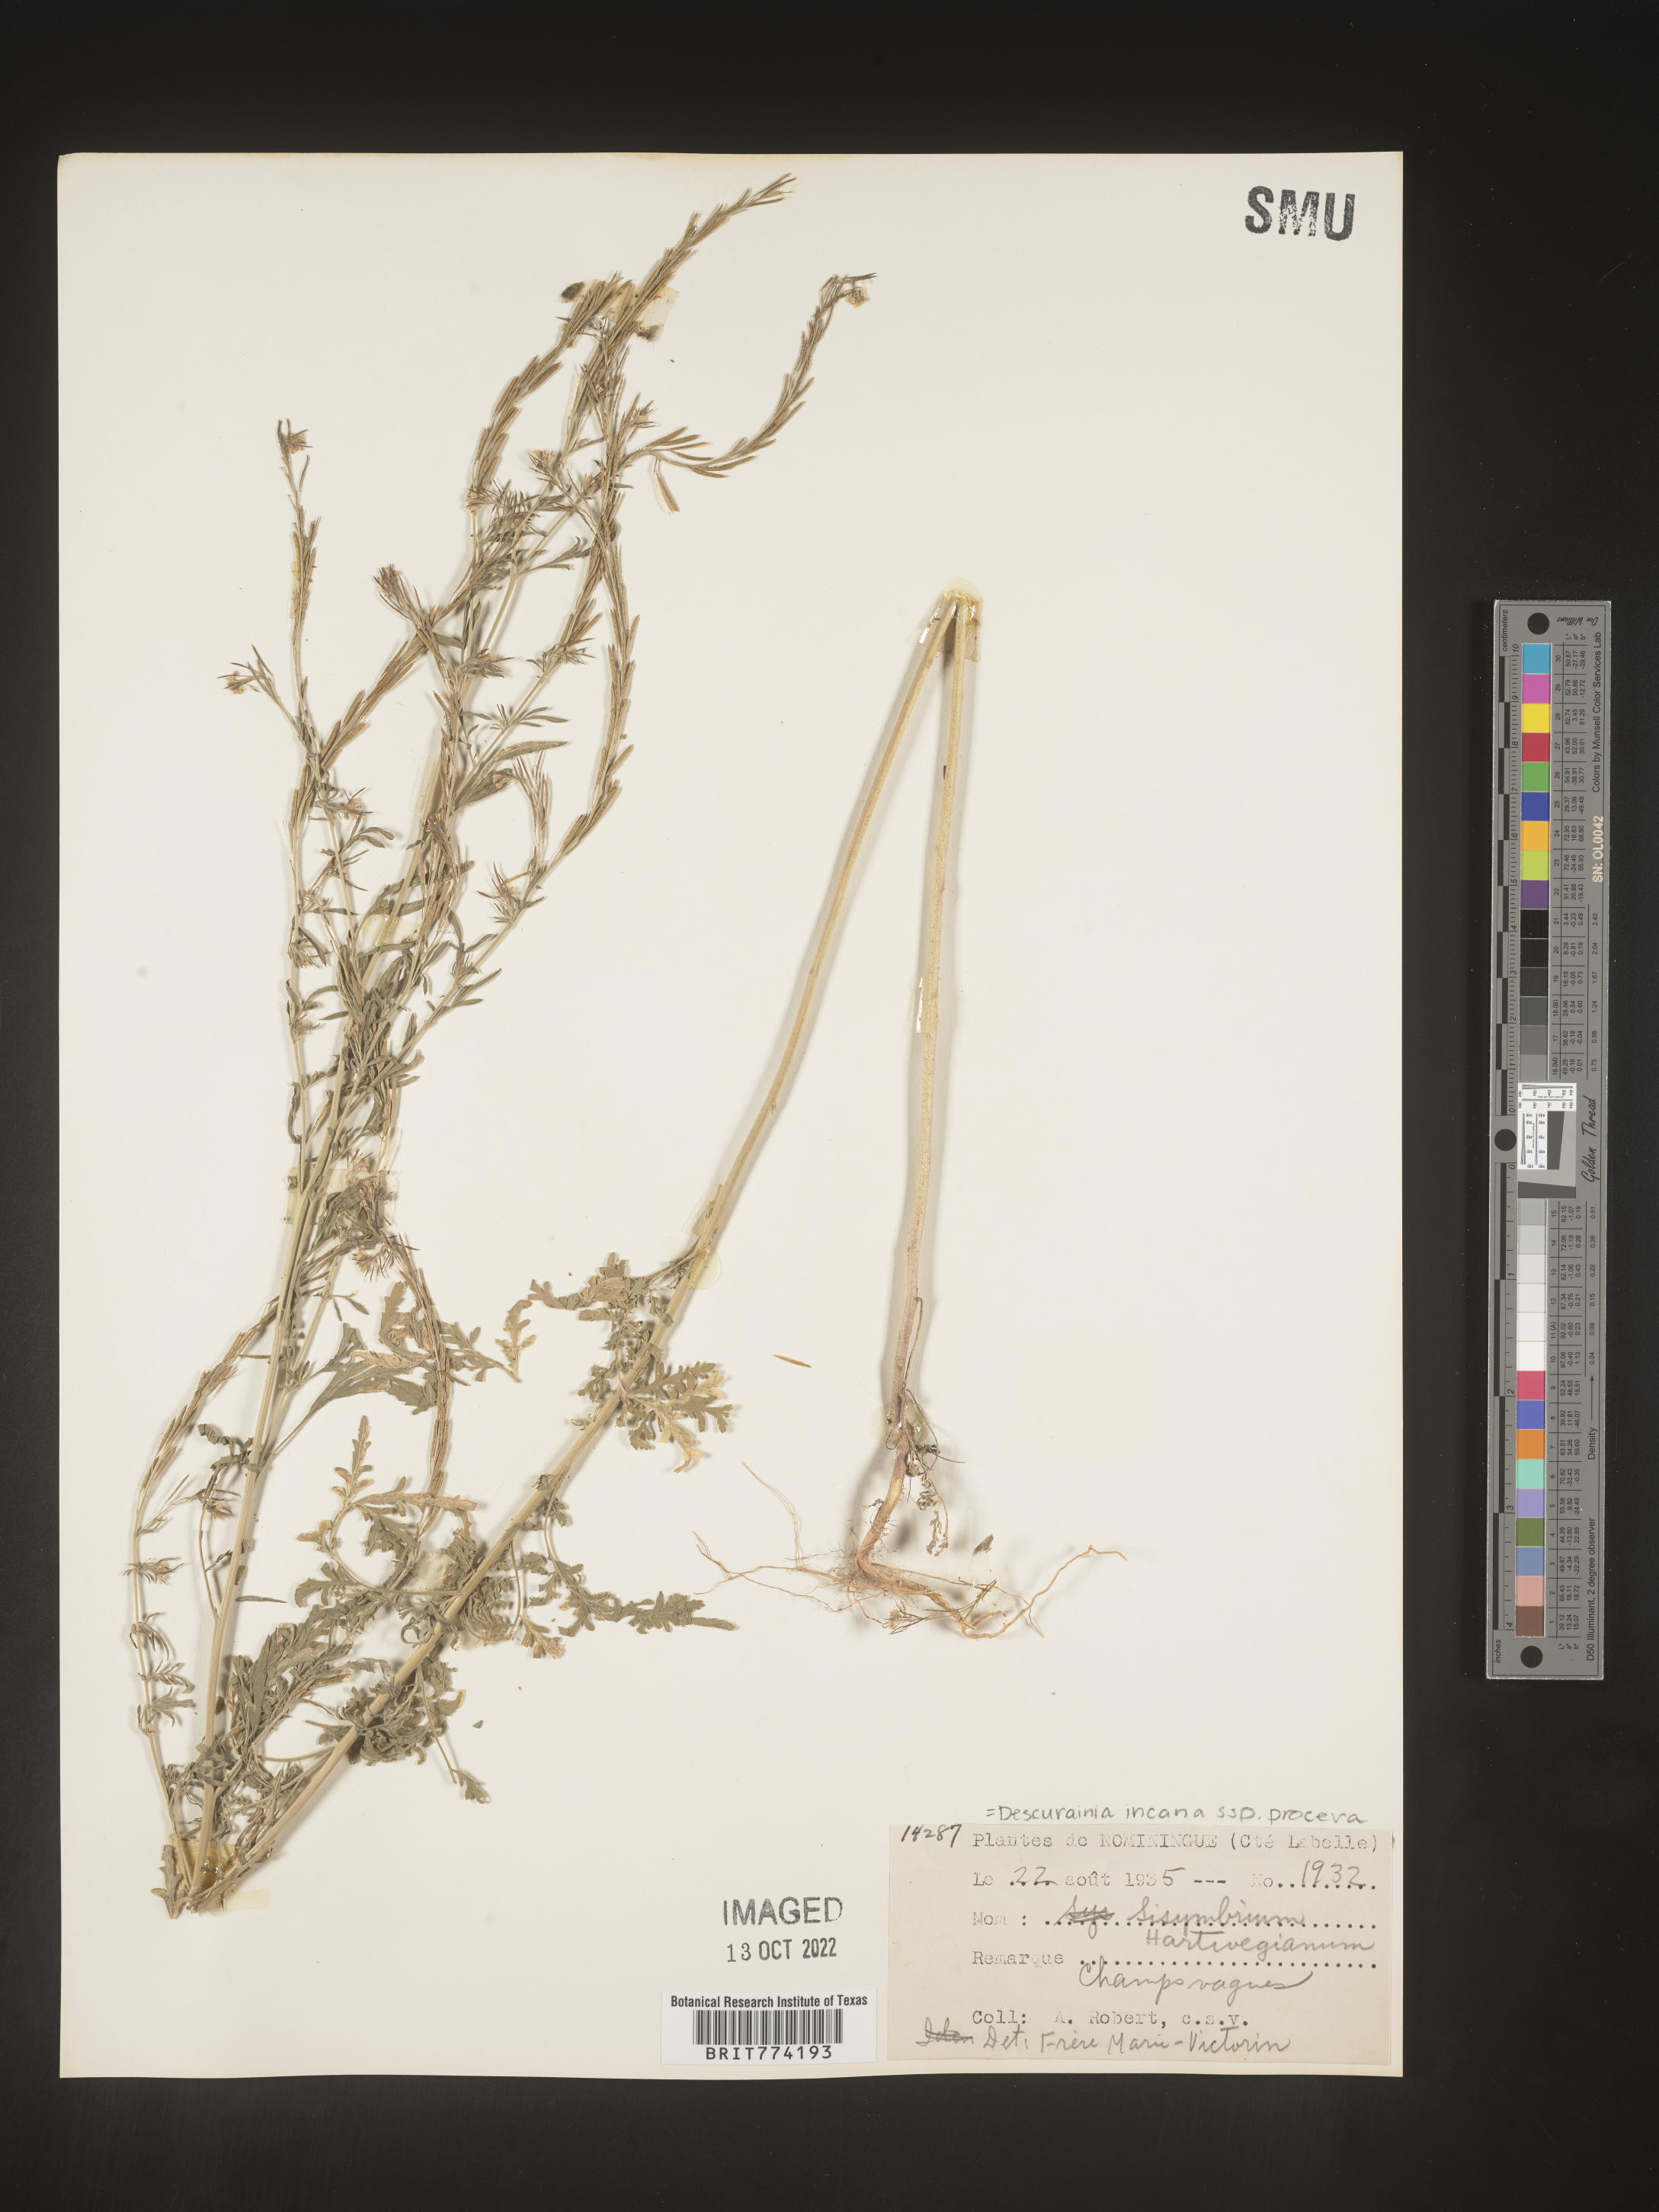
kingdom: Plantae
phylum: Tracheophyta
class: Magnoliopsida
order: Brassicales
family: Brassicaceae
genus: Descurainia
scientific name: Descurainia
